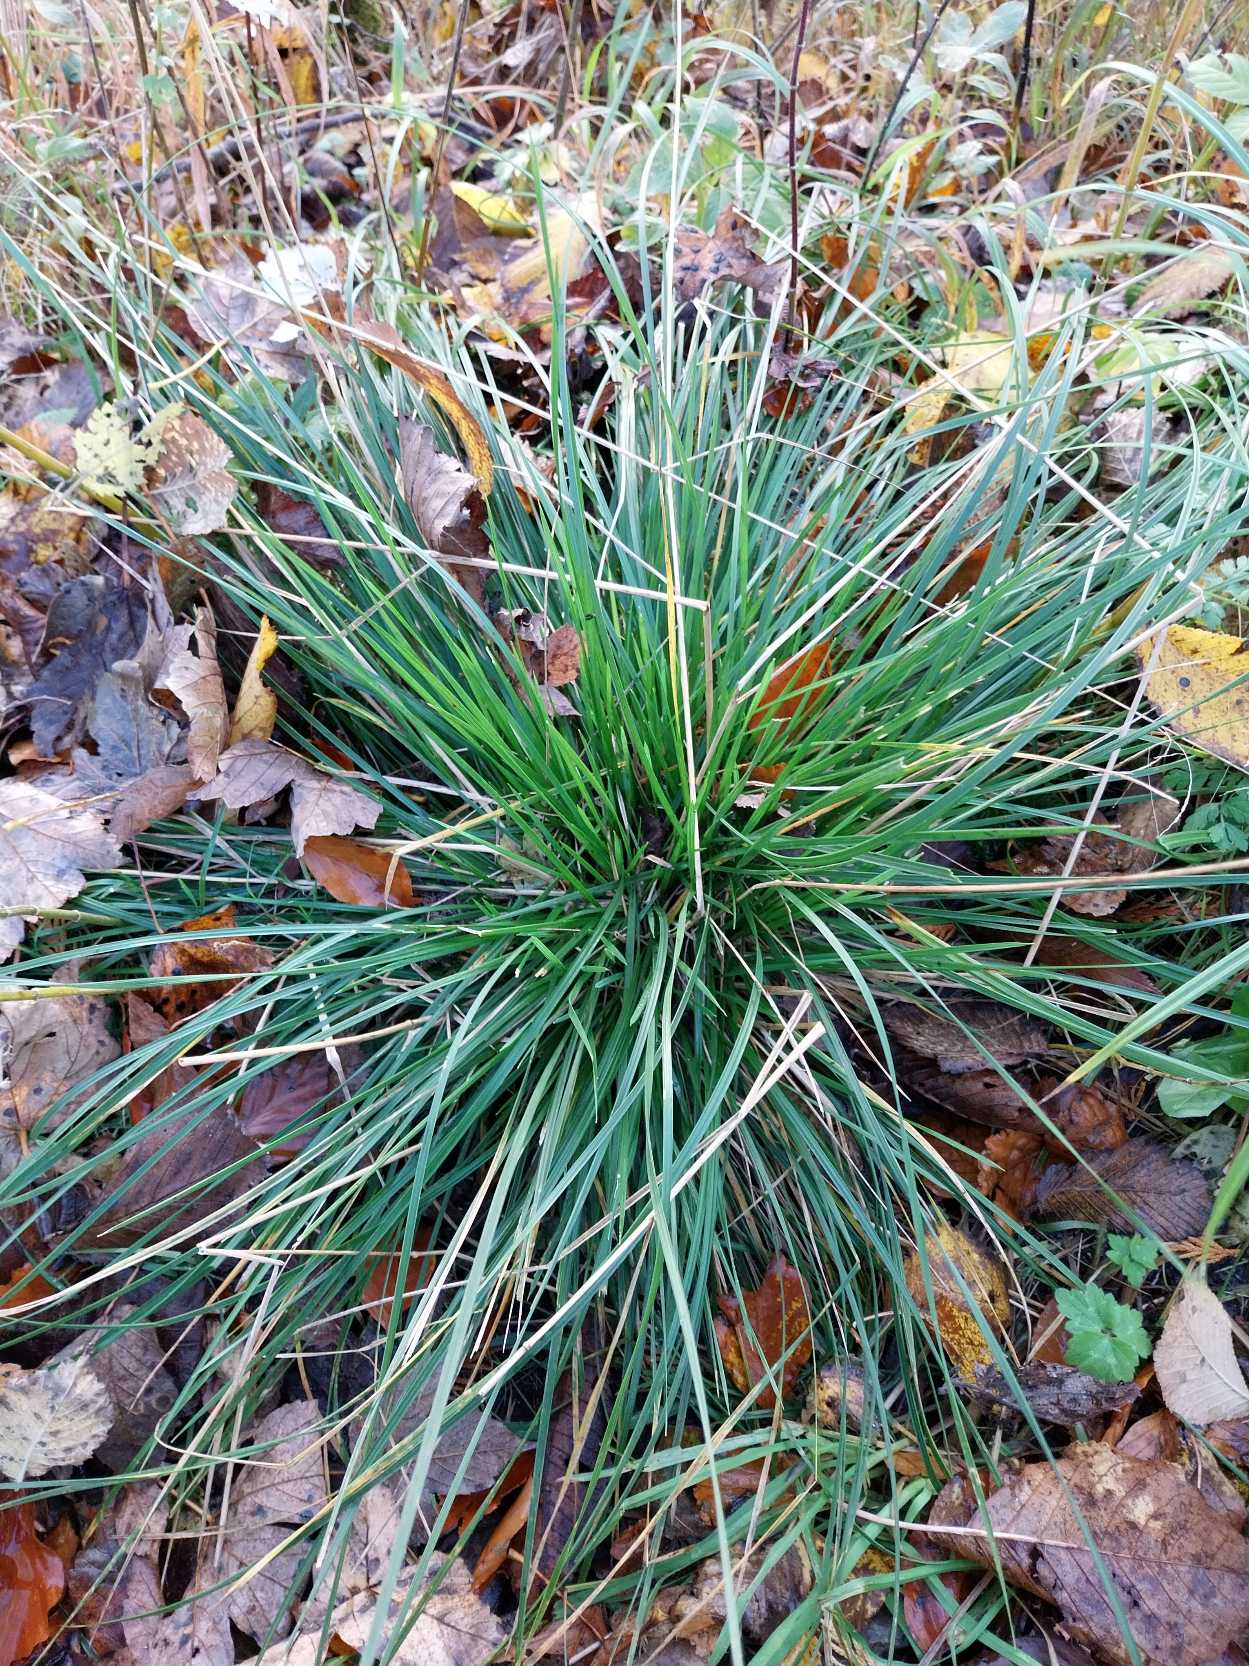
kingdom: Plantae
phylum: Tracheophyta
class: Liliopsida
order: Poales
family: Poaceae
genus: Deschampsia
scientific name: Deschampsia cespitosa
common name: Mose-bunke
